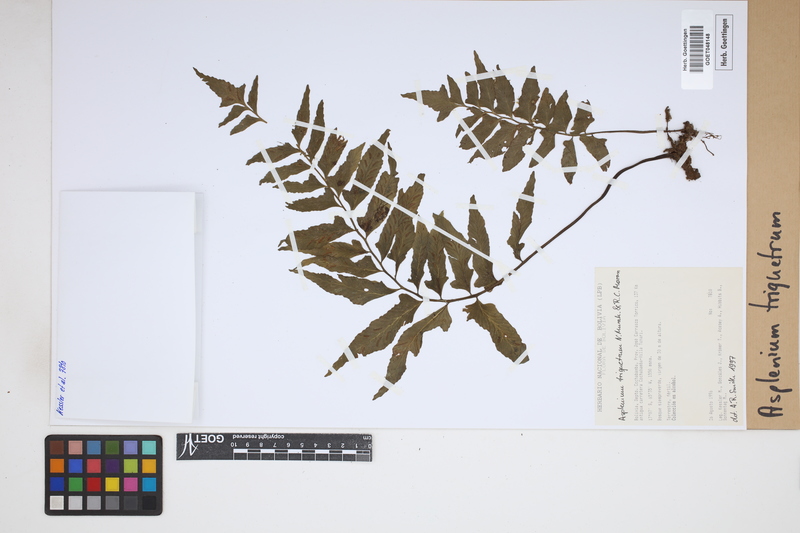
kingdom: Plantae
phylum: Tracheophyta
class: Polypodiopsida
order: Polypodiales
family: Aspleniaceae
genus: Hymenasplenium
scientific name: Hymenasplenium triquetrum
